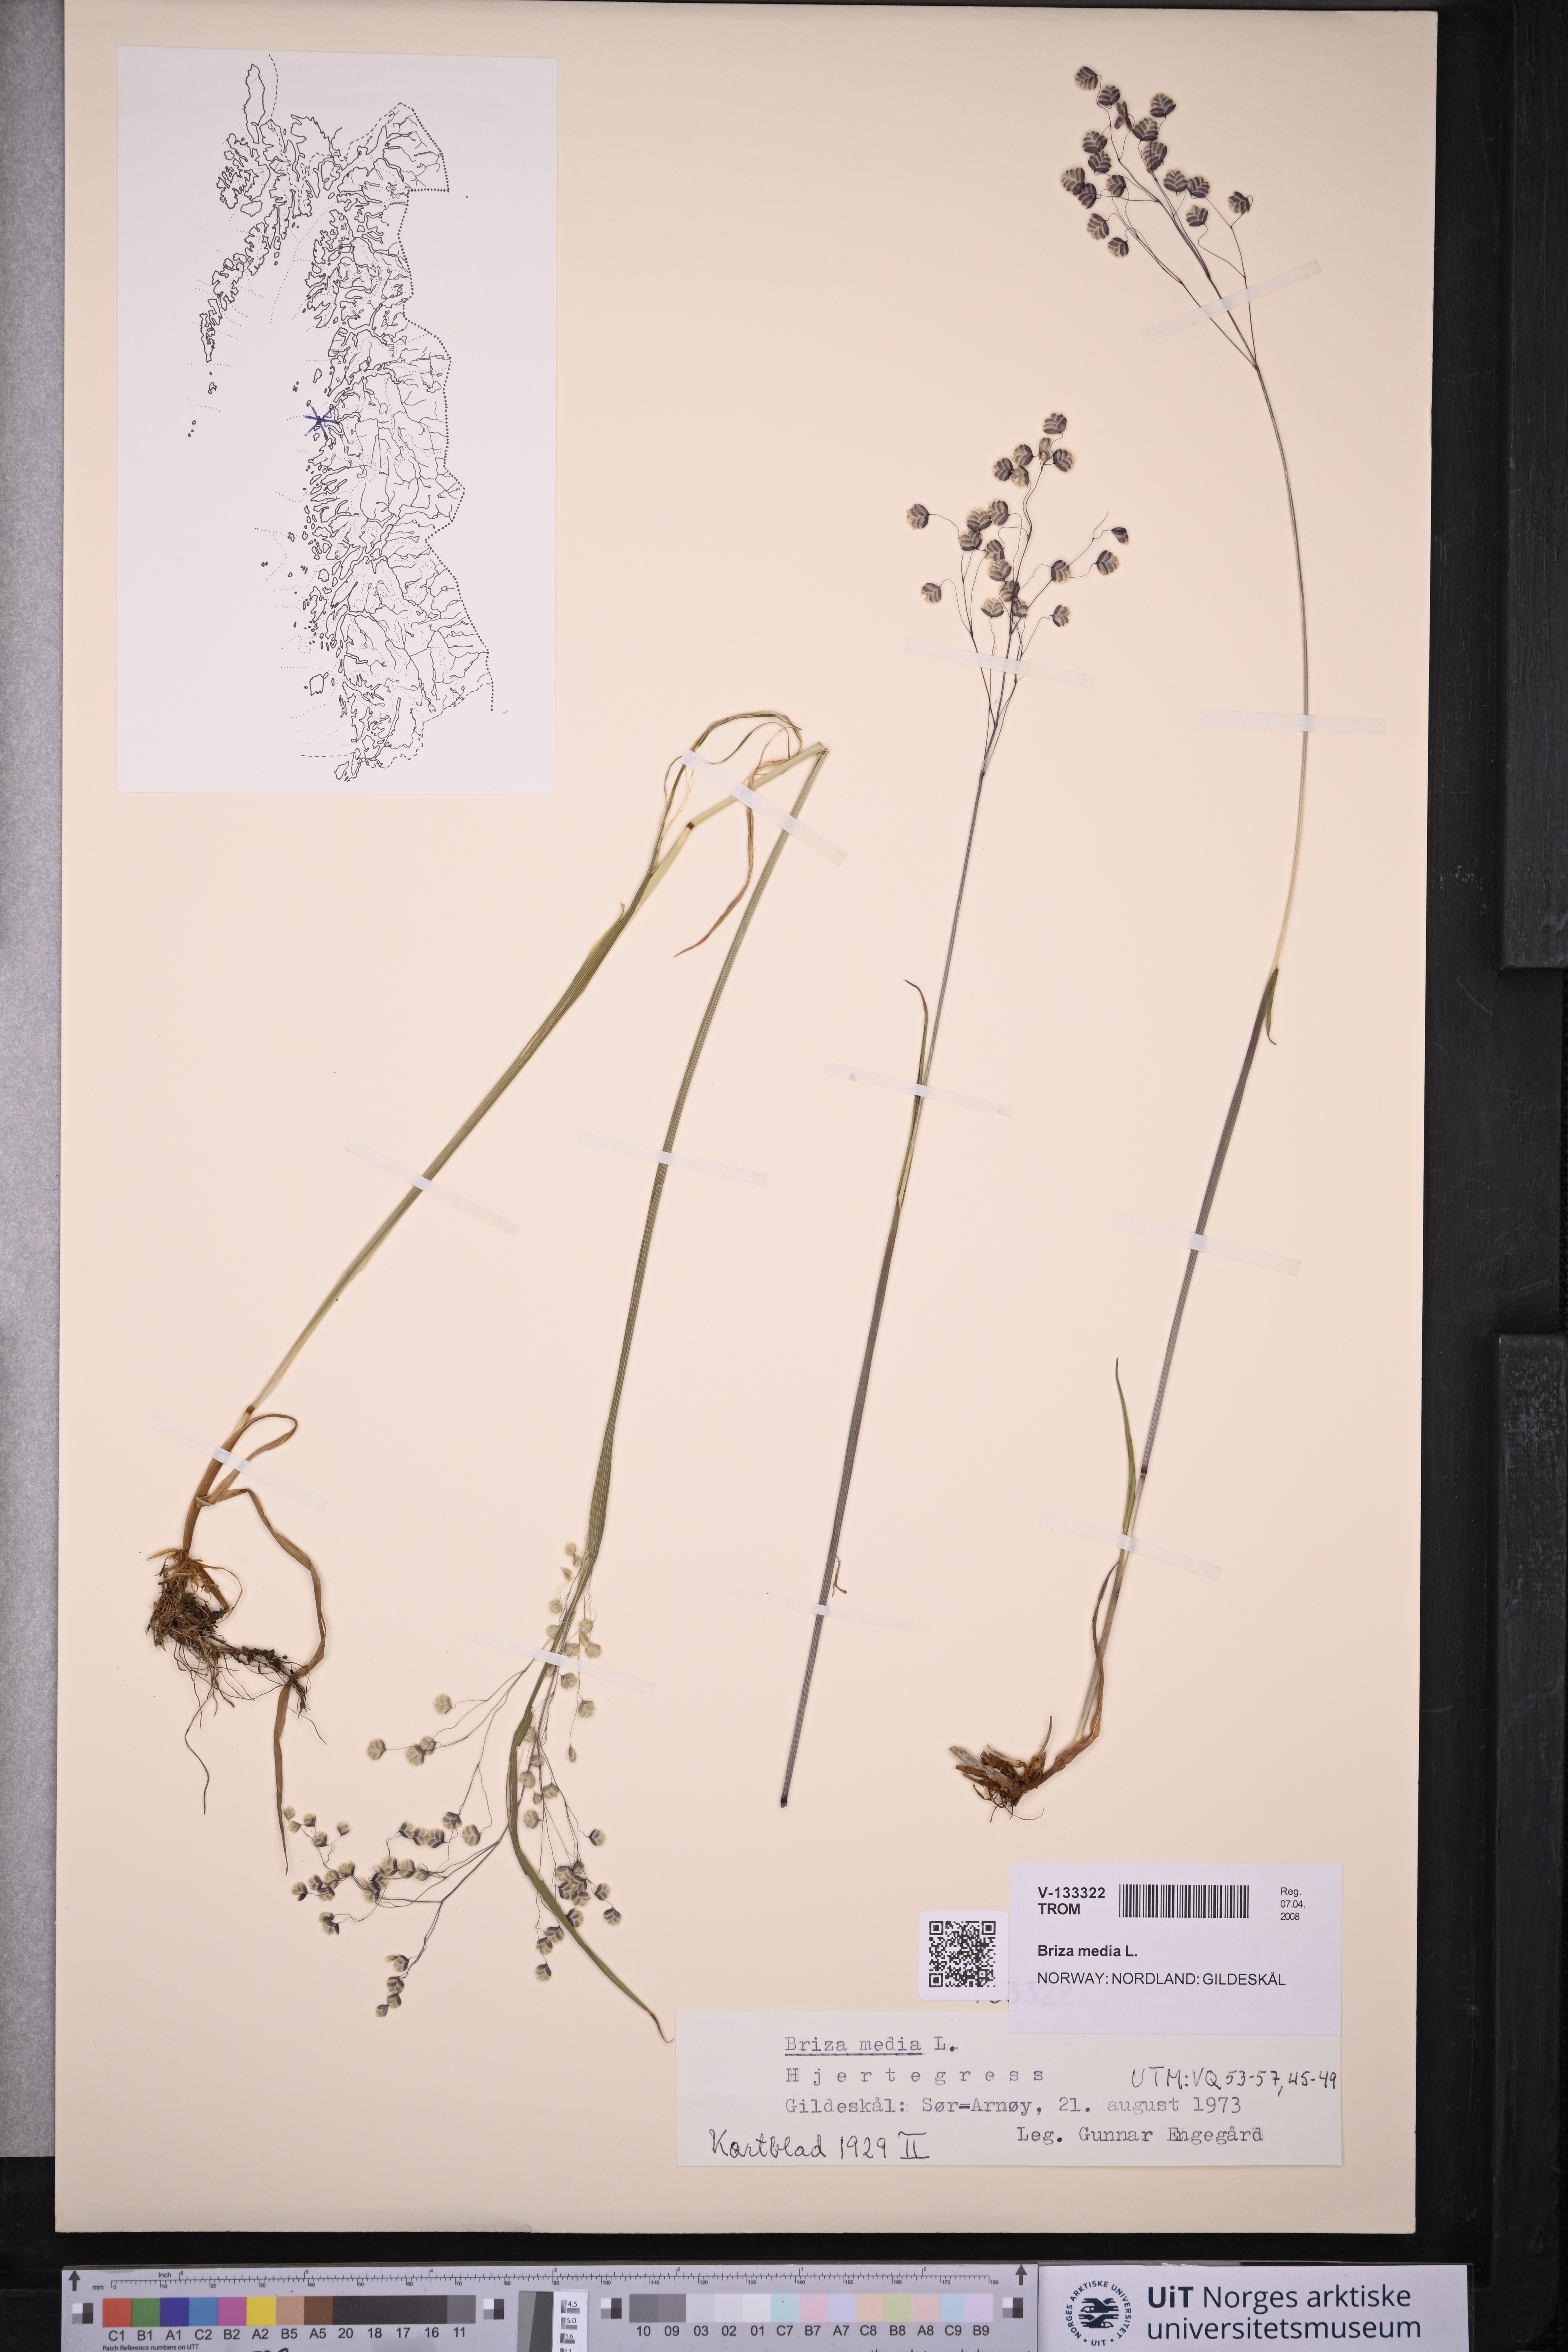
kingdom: Plantae
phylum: Tracheophyta
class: Liliopsida
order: Poales
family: Poaceae
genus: Briza
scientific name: Briza media
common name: Quaking grass
